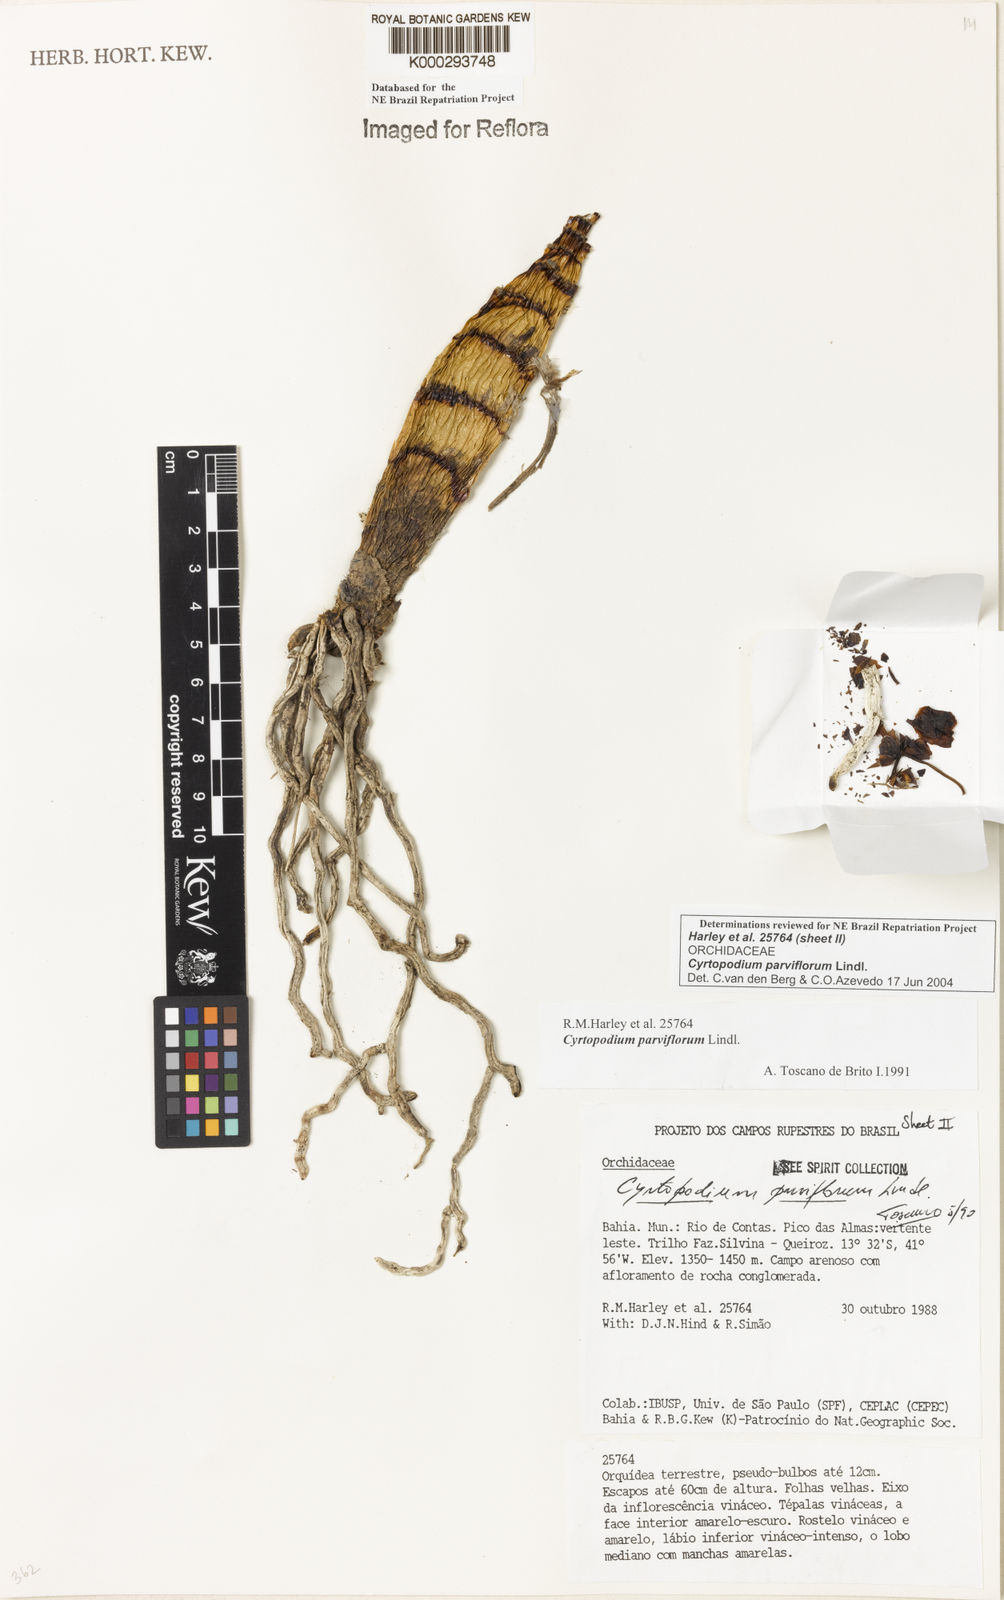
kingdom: Plantae
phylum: Tracheophyta
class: Liliopsida
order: Asparagales
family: Orchidaceae
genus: Cyrtopodium
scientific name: Cyrtopodium parviflorum
